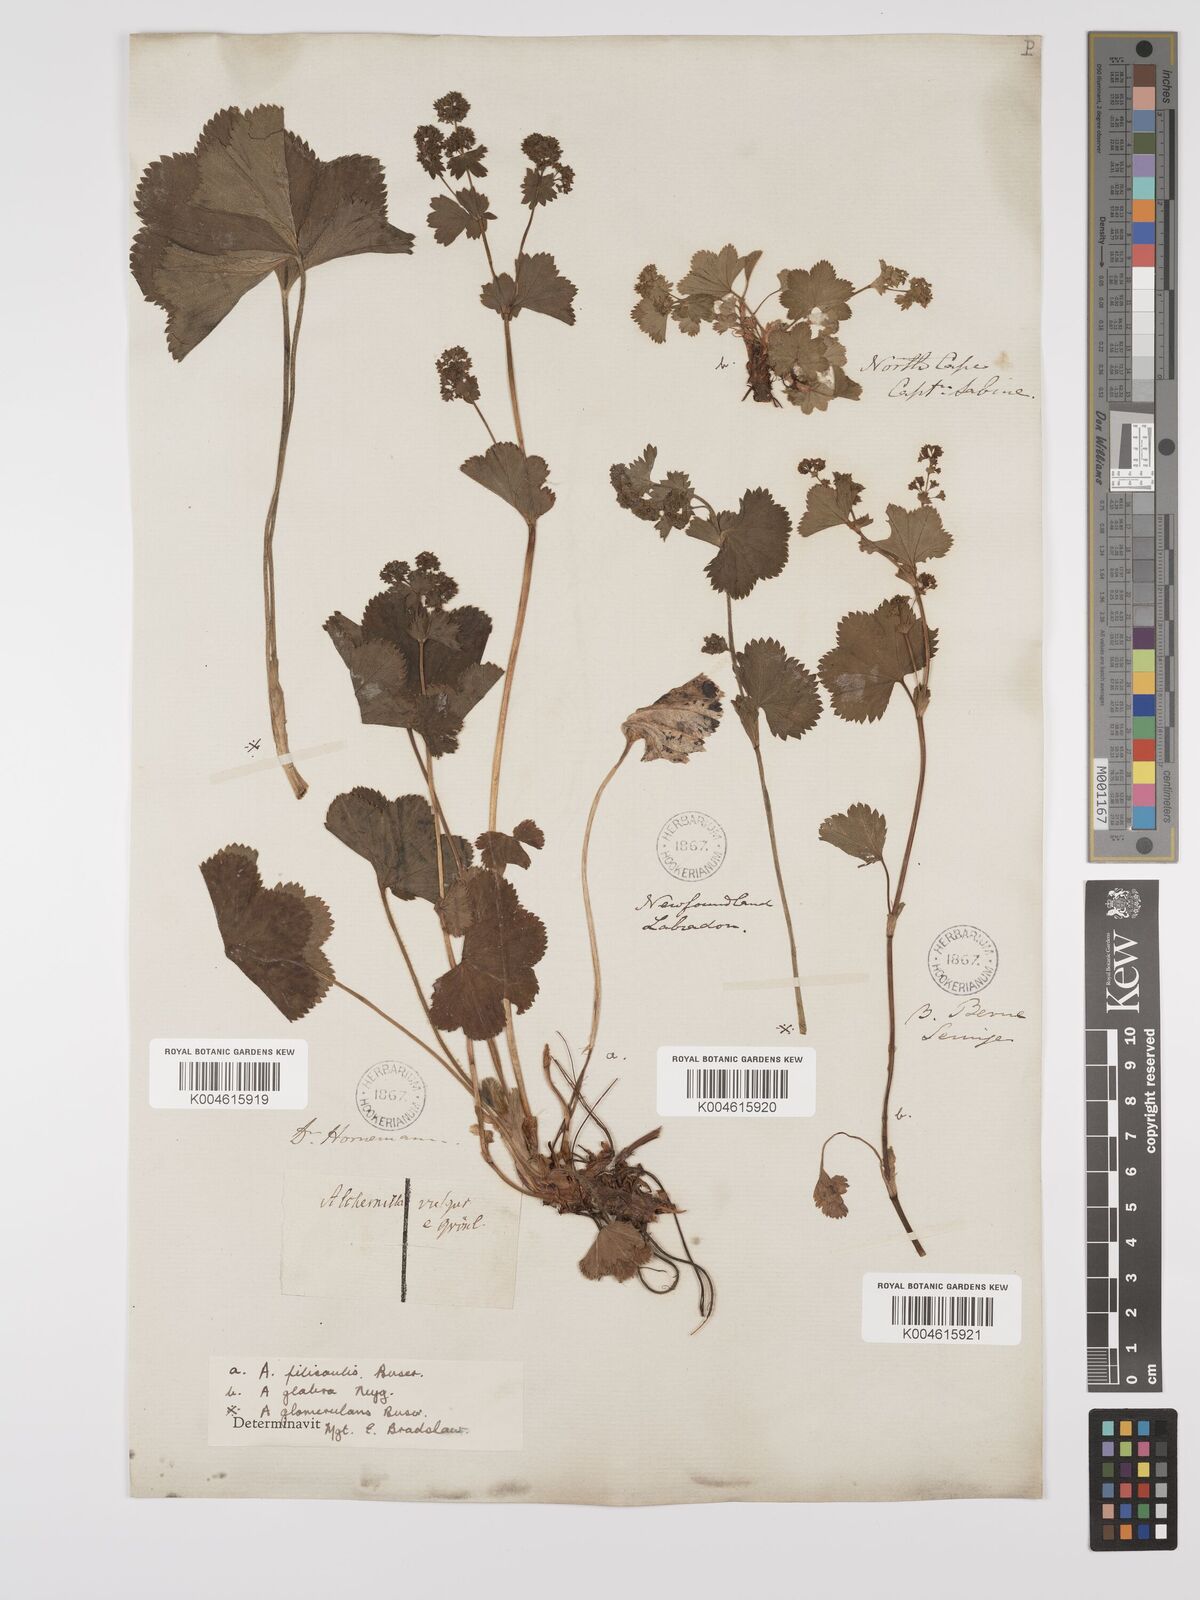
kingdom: Plantae
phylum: Tracheophyta
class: Magnoliopsida
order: Rosales
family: Rosaceae
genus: Alchemilla
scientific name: Alchemilla vulgaris
